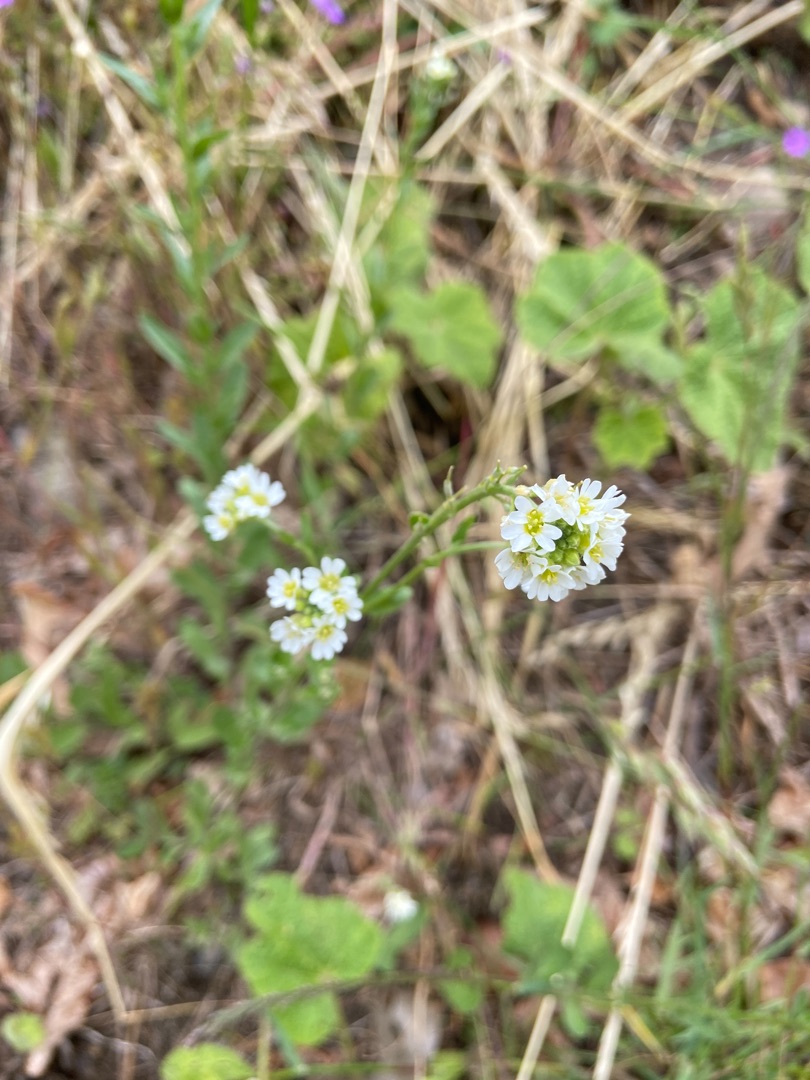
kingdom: Plantae
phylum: Tracheophyta
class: Magnoliopsida
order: Brassicales
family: Brassicaceae
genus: Berteroa
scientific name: Berteroa incana
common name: Kløvplade
